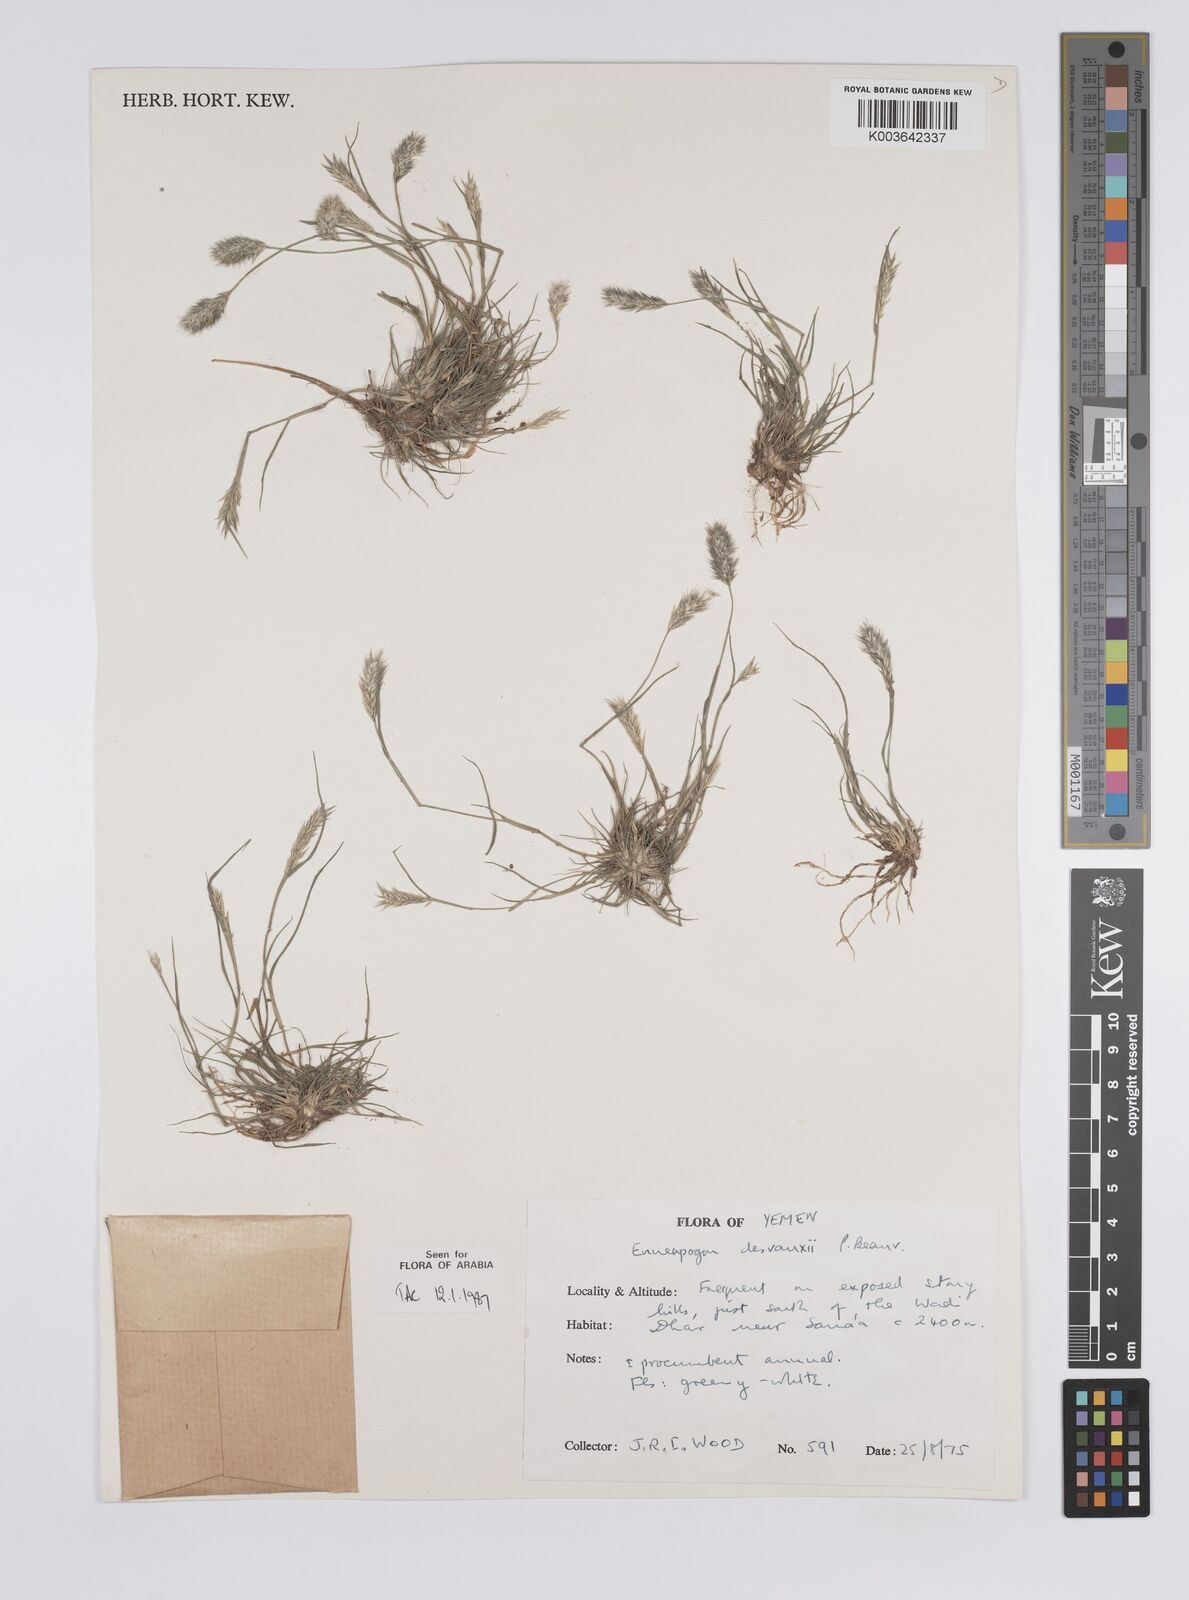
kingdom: Plantae
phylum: Tracheophyta
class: Liliopsida
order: Poales
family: Poaceae
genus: Enneapogon
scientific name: Enneapogon desvauxii
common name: Feather pappus grass
